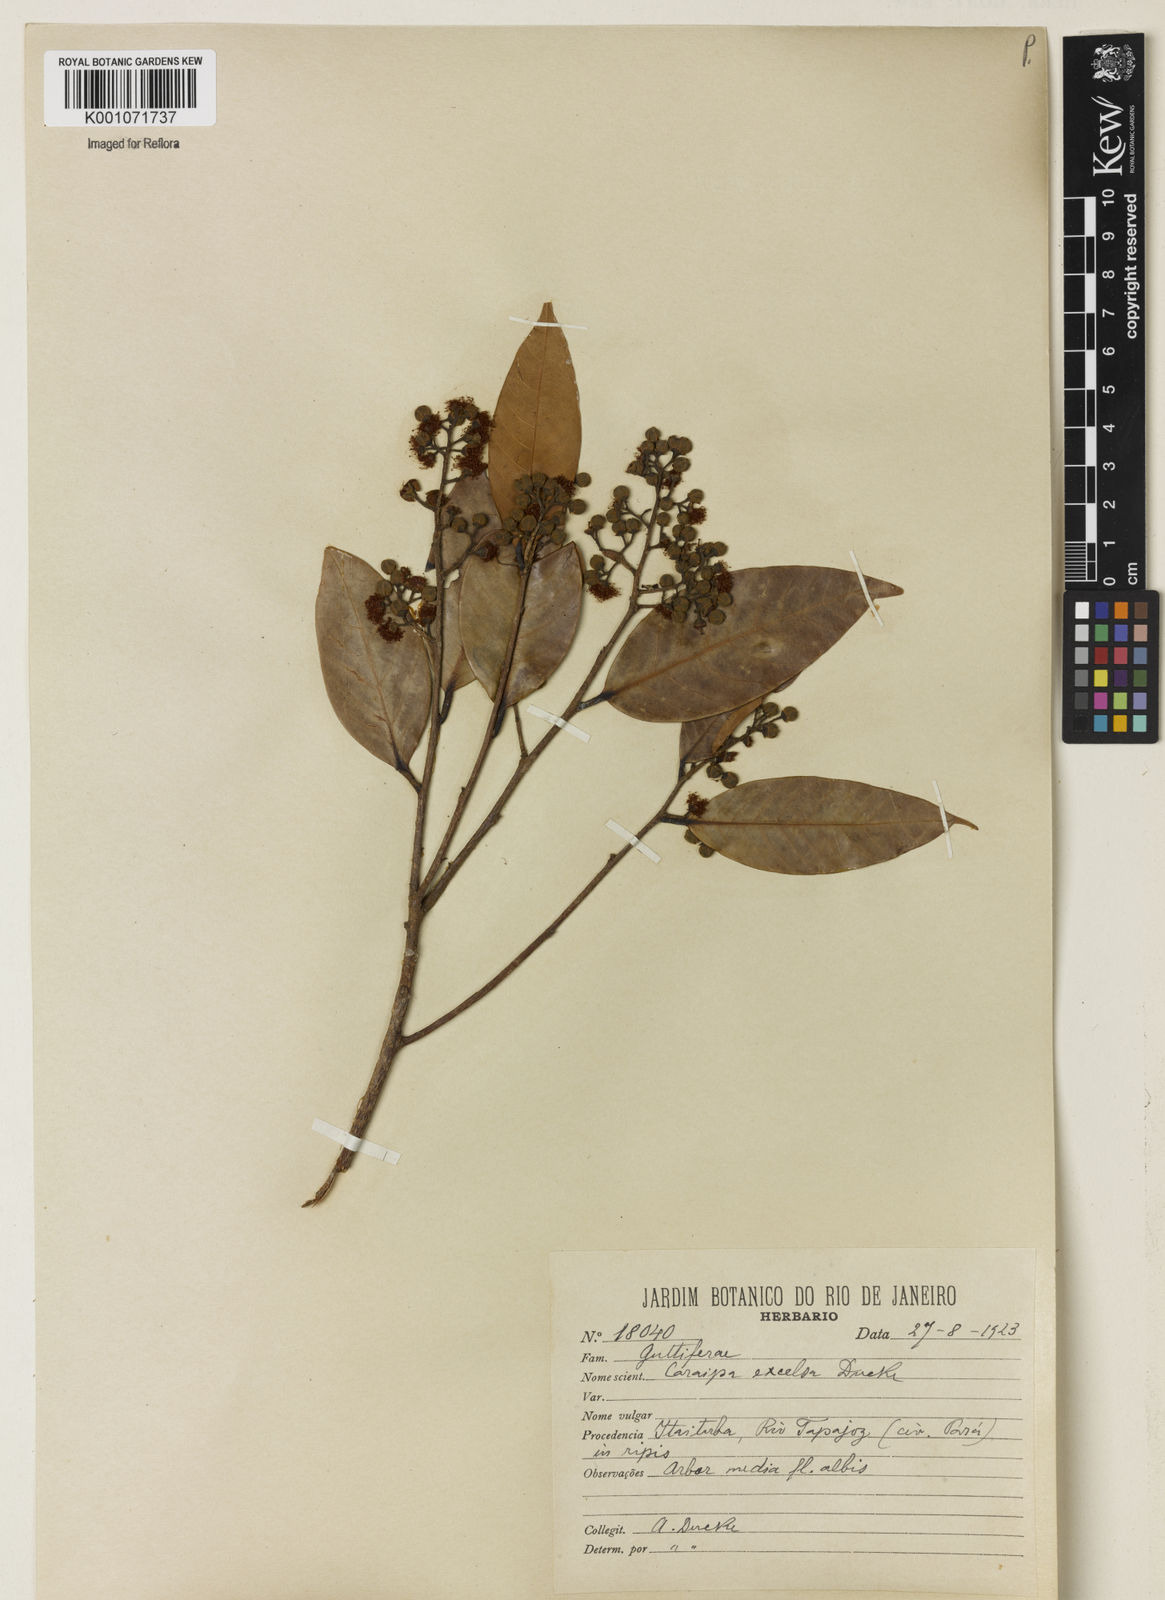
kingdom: Plantae
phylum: Tracheophyta
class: Magnoliopsida
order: Malpighiales
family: Calophyllaceae
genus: Caraipa
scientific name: Caraipa densifolia
